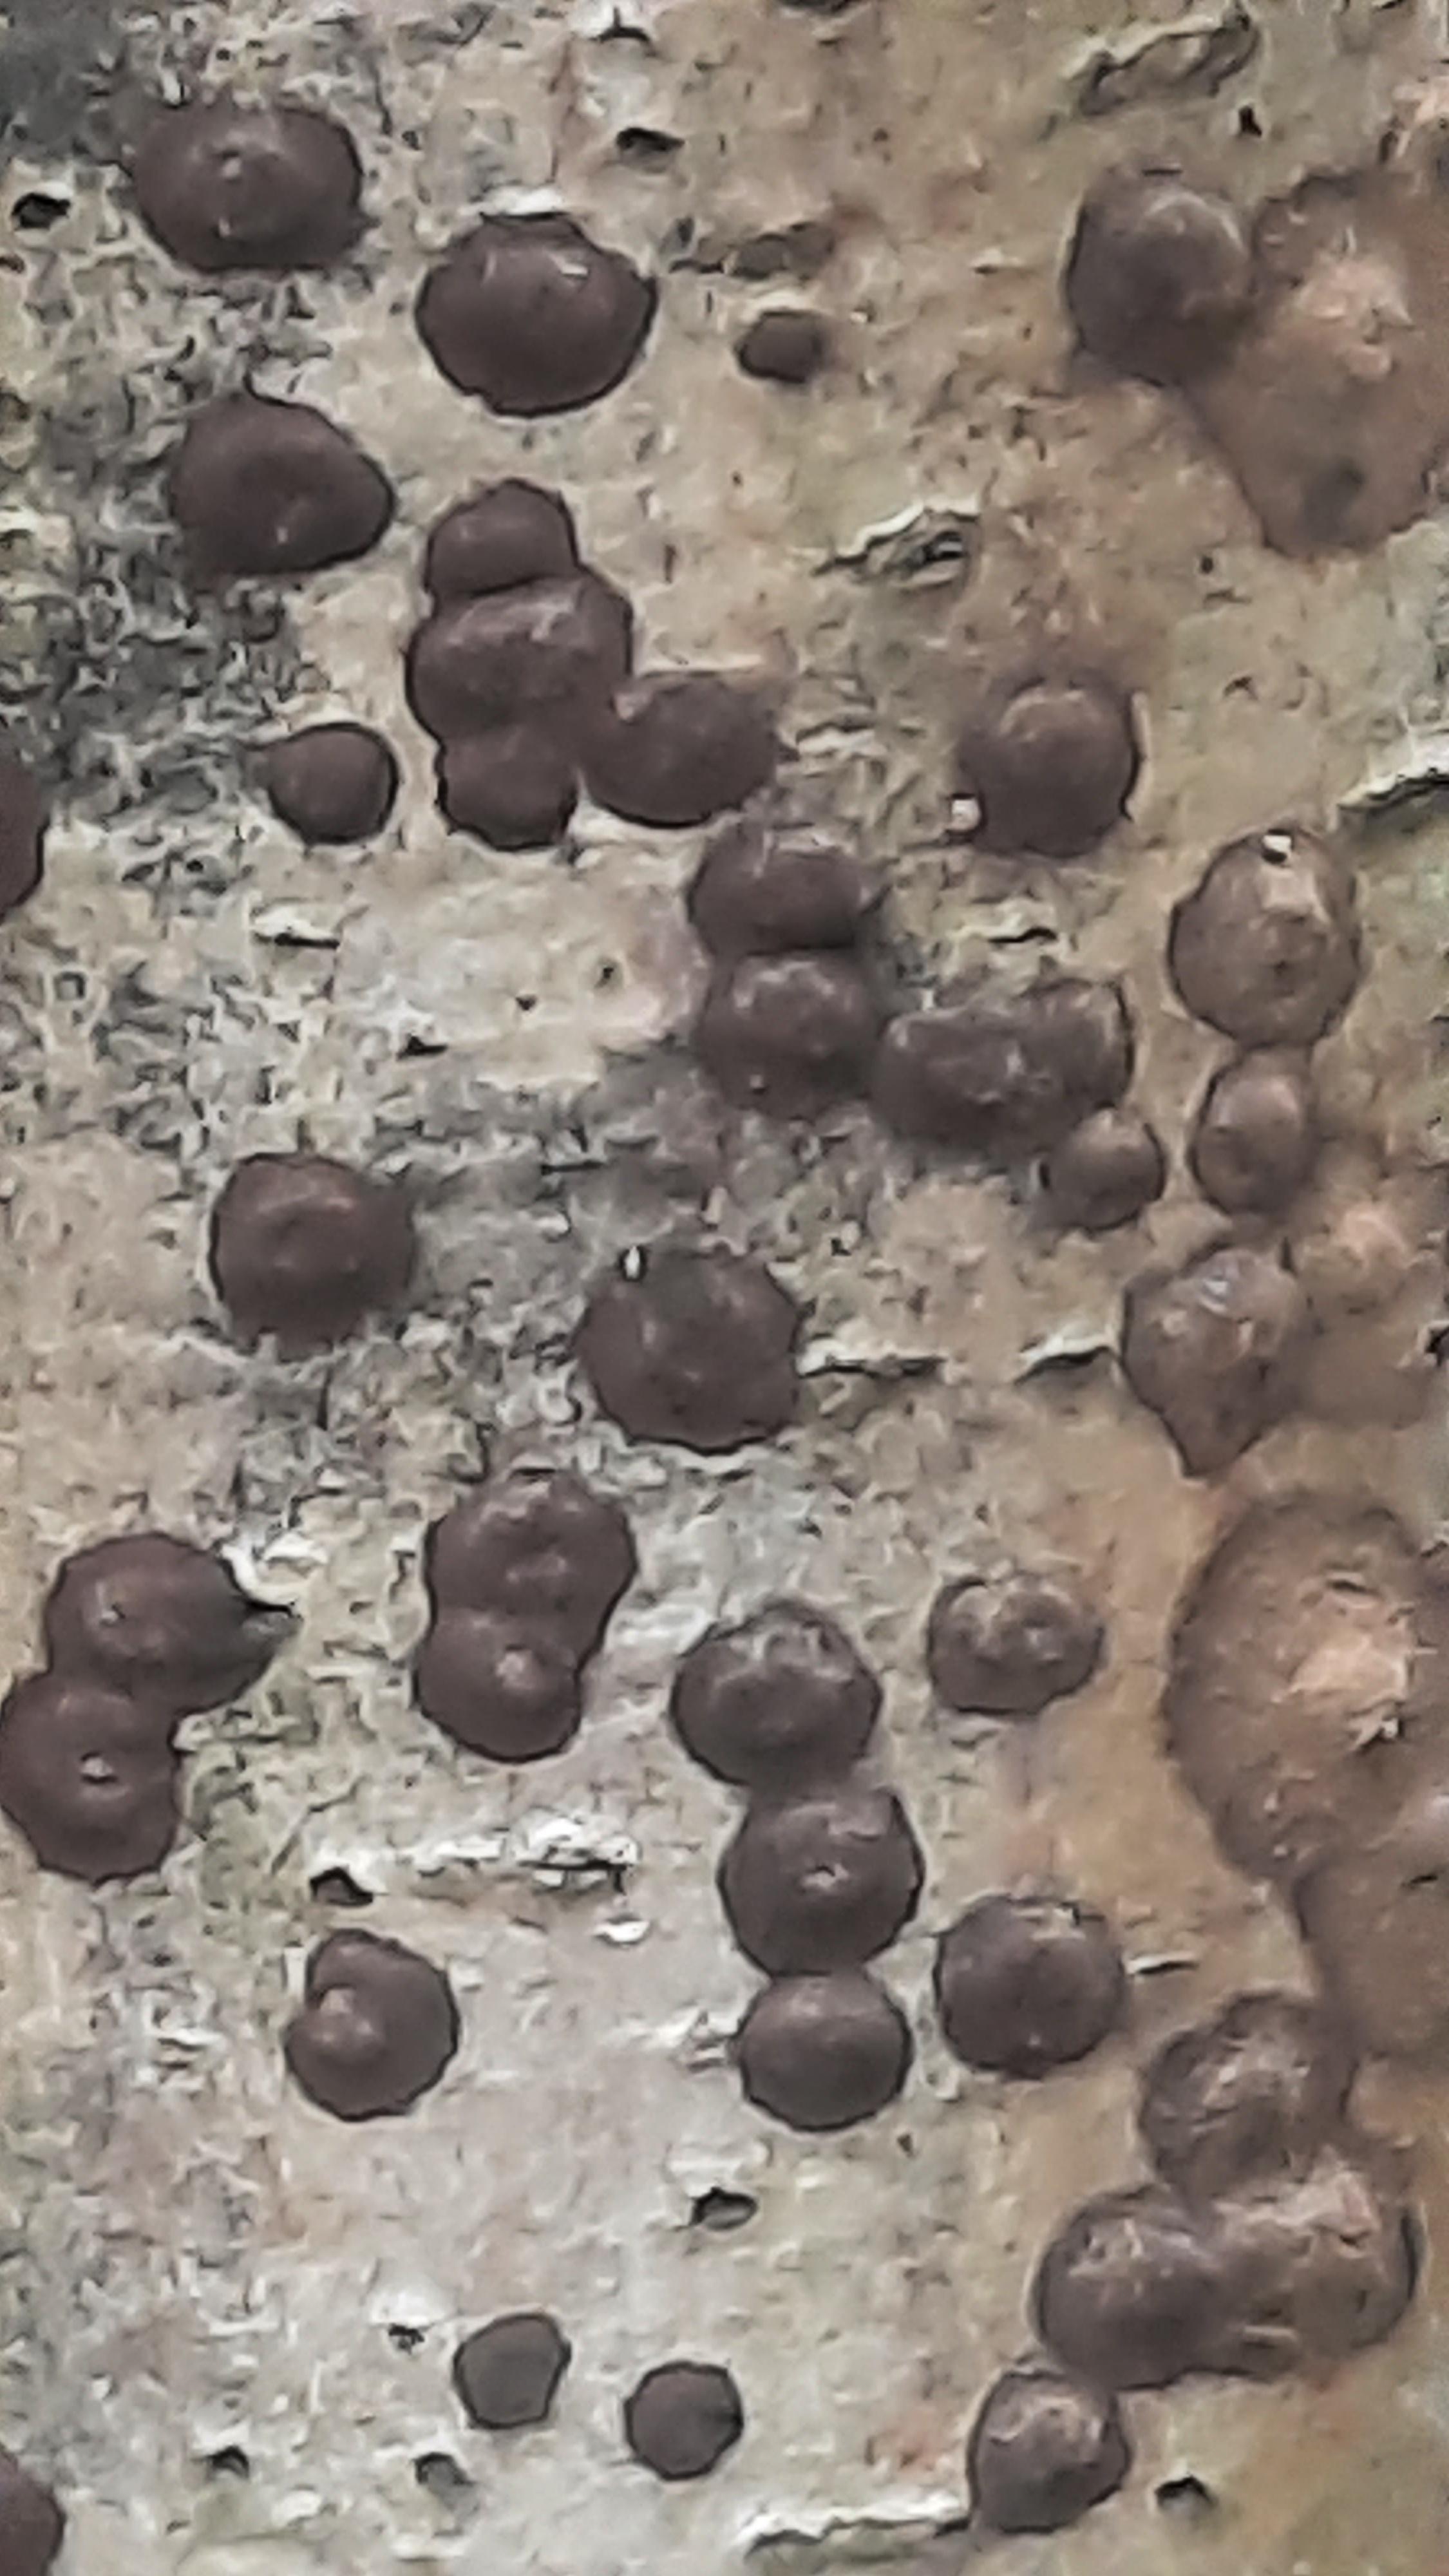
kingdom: Fungi
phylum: Ascomycota
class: Sordariomycetes
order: Xylariales
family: Hypoxylaceae
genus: Hypoxylon
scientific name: Hypoxylon fuscum
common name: kegleformet kulbær
